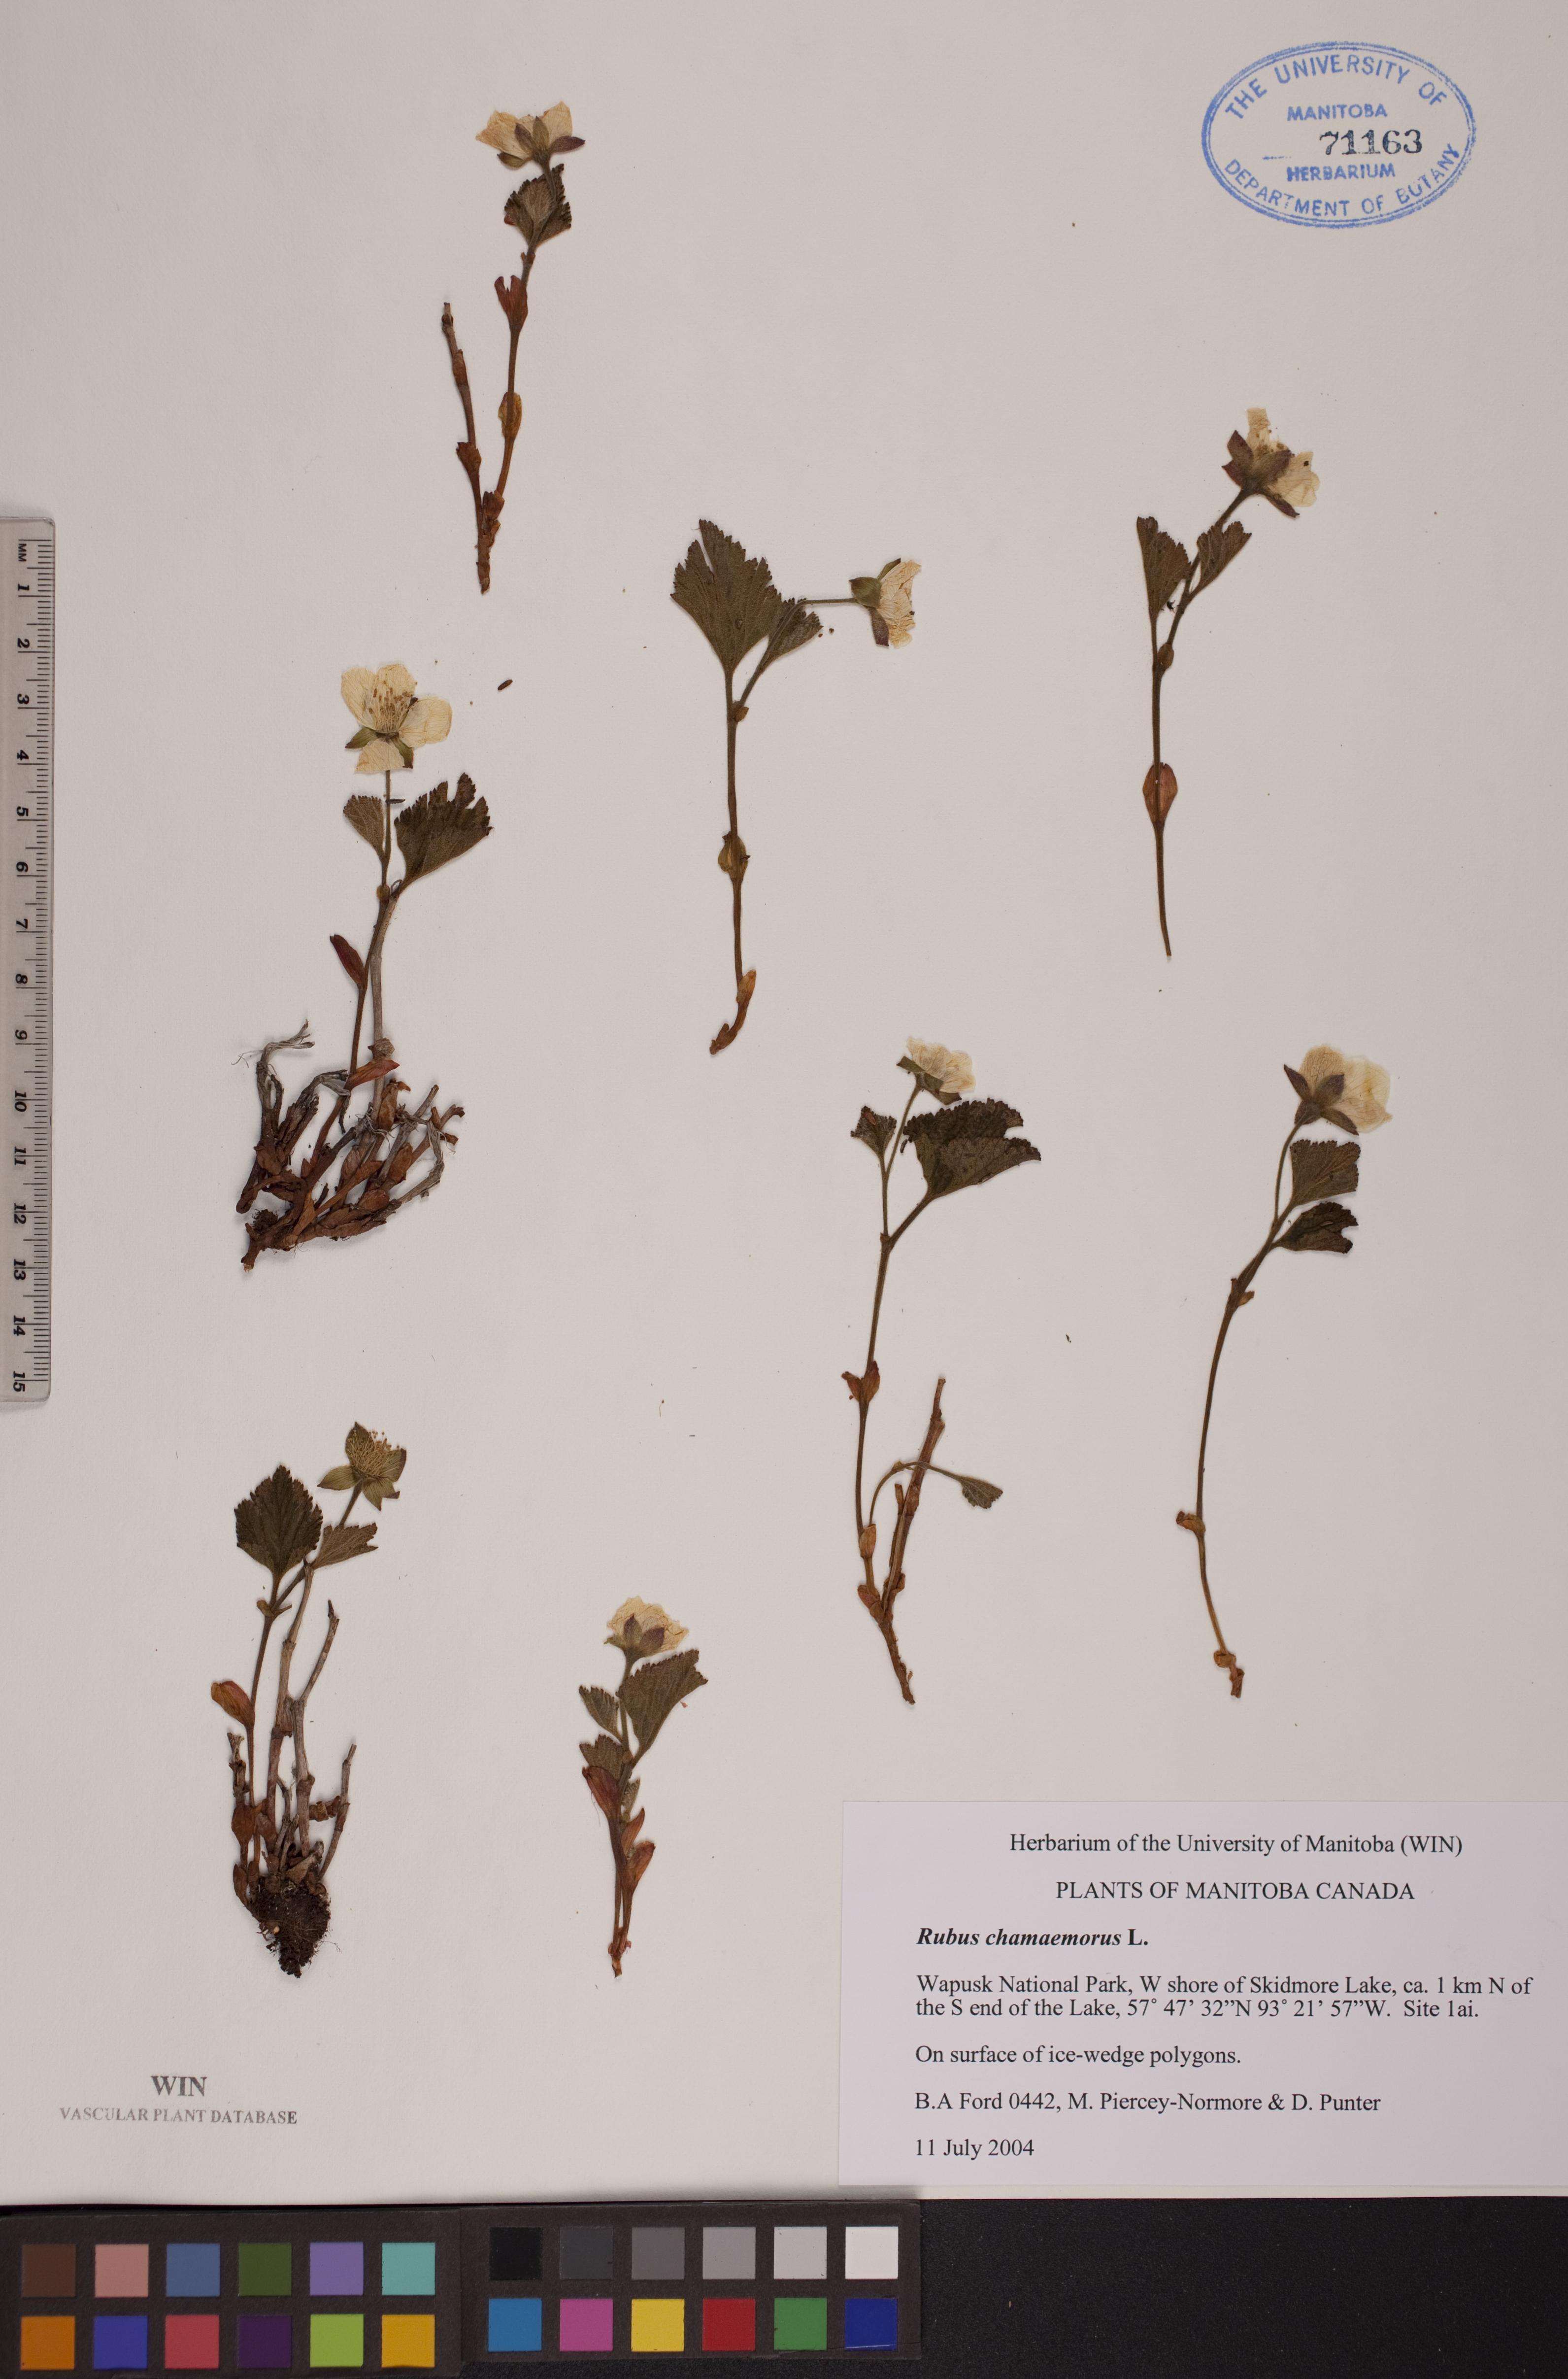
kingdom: Plantae
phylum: Tracheophyta
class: Magnoliopsida
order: Rosales
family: Rosaceae
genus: Rubus
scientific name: Rubus chamaemorus
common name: Cloudberry
